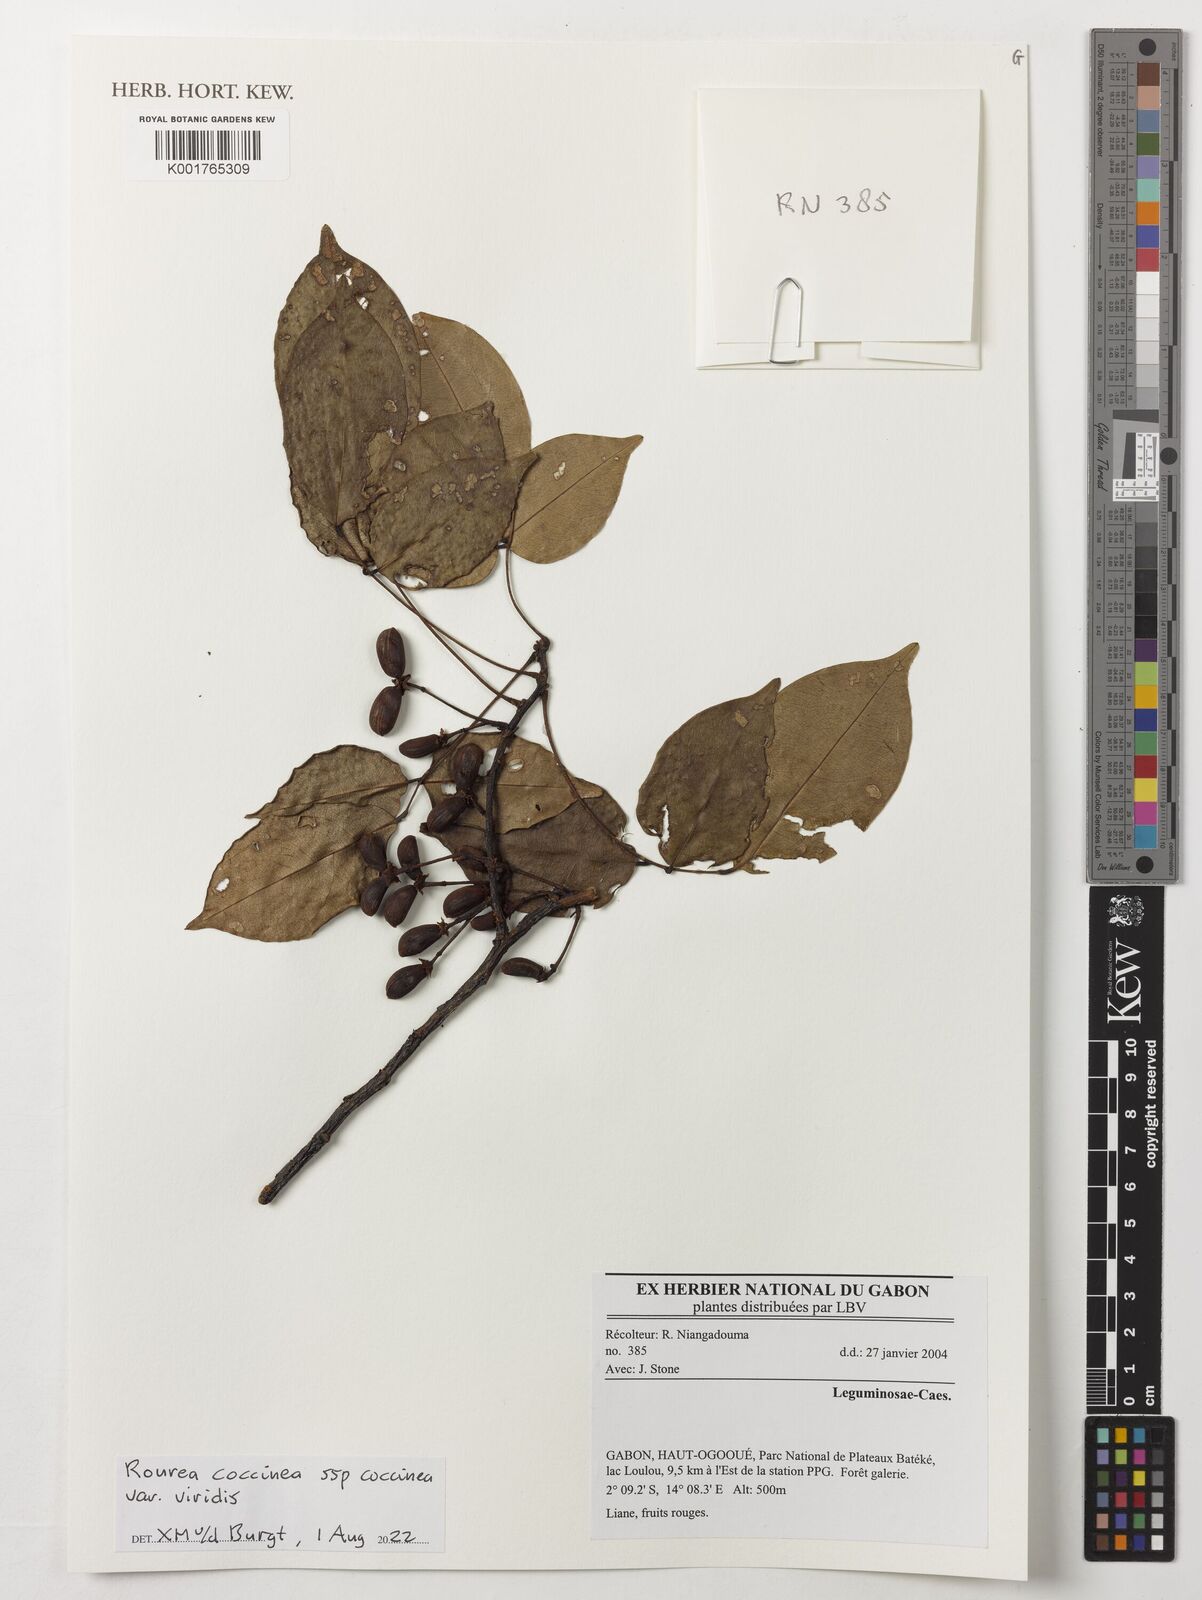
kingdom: Plantae
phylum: Tracheophyta
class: Magnoliopsida
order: Oxalidales
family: Connaraceae
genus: Rourea
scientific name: Rourea coccinea
